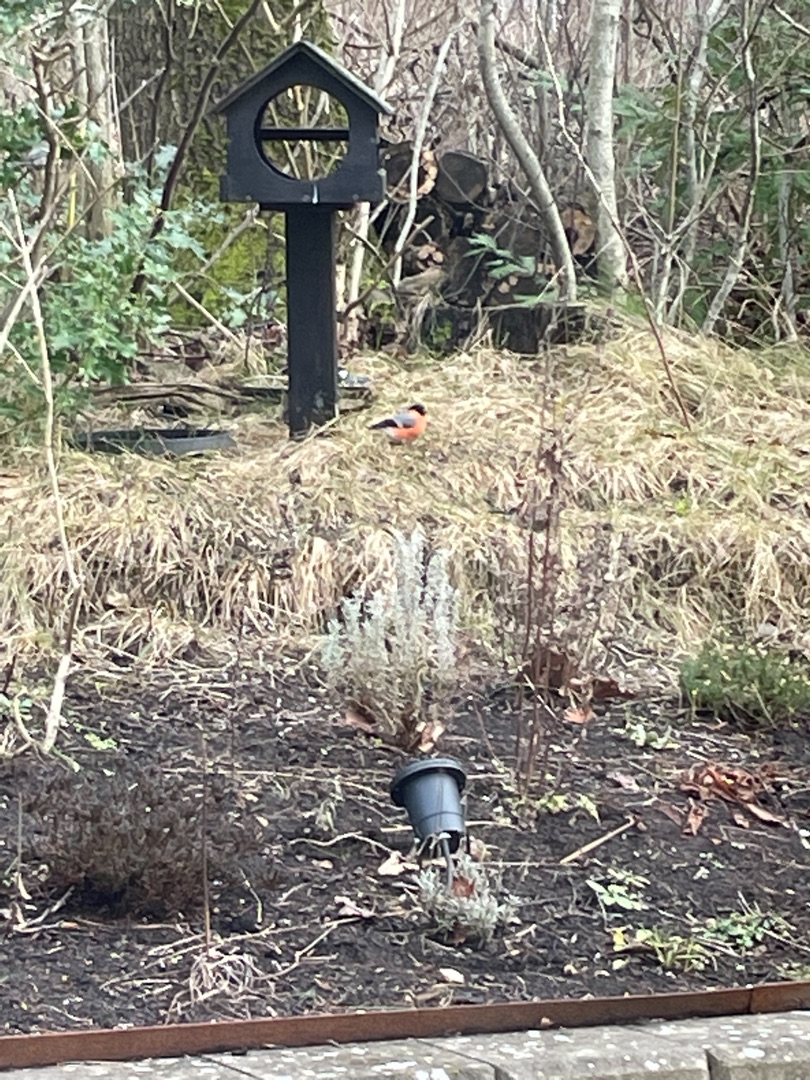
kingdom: Animalia
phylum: Chordata
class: Aves
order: Passeriformes
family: Fringillidae
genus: Pyrrhula
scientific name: Pyrrhula pyrrhula
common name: Dompap
